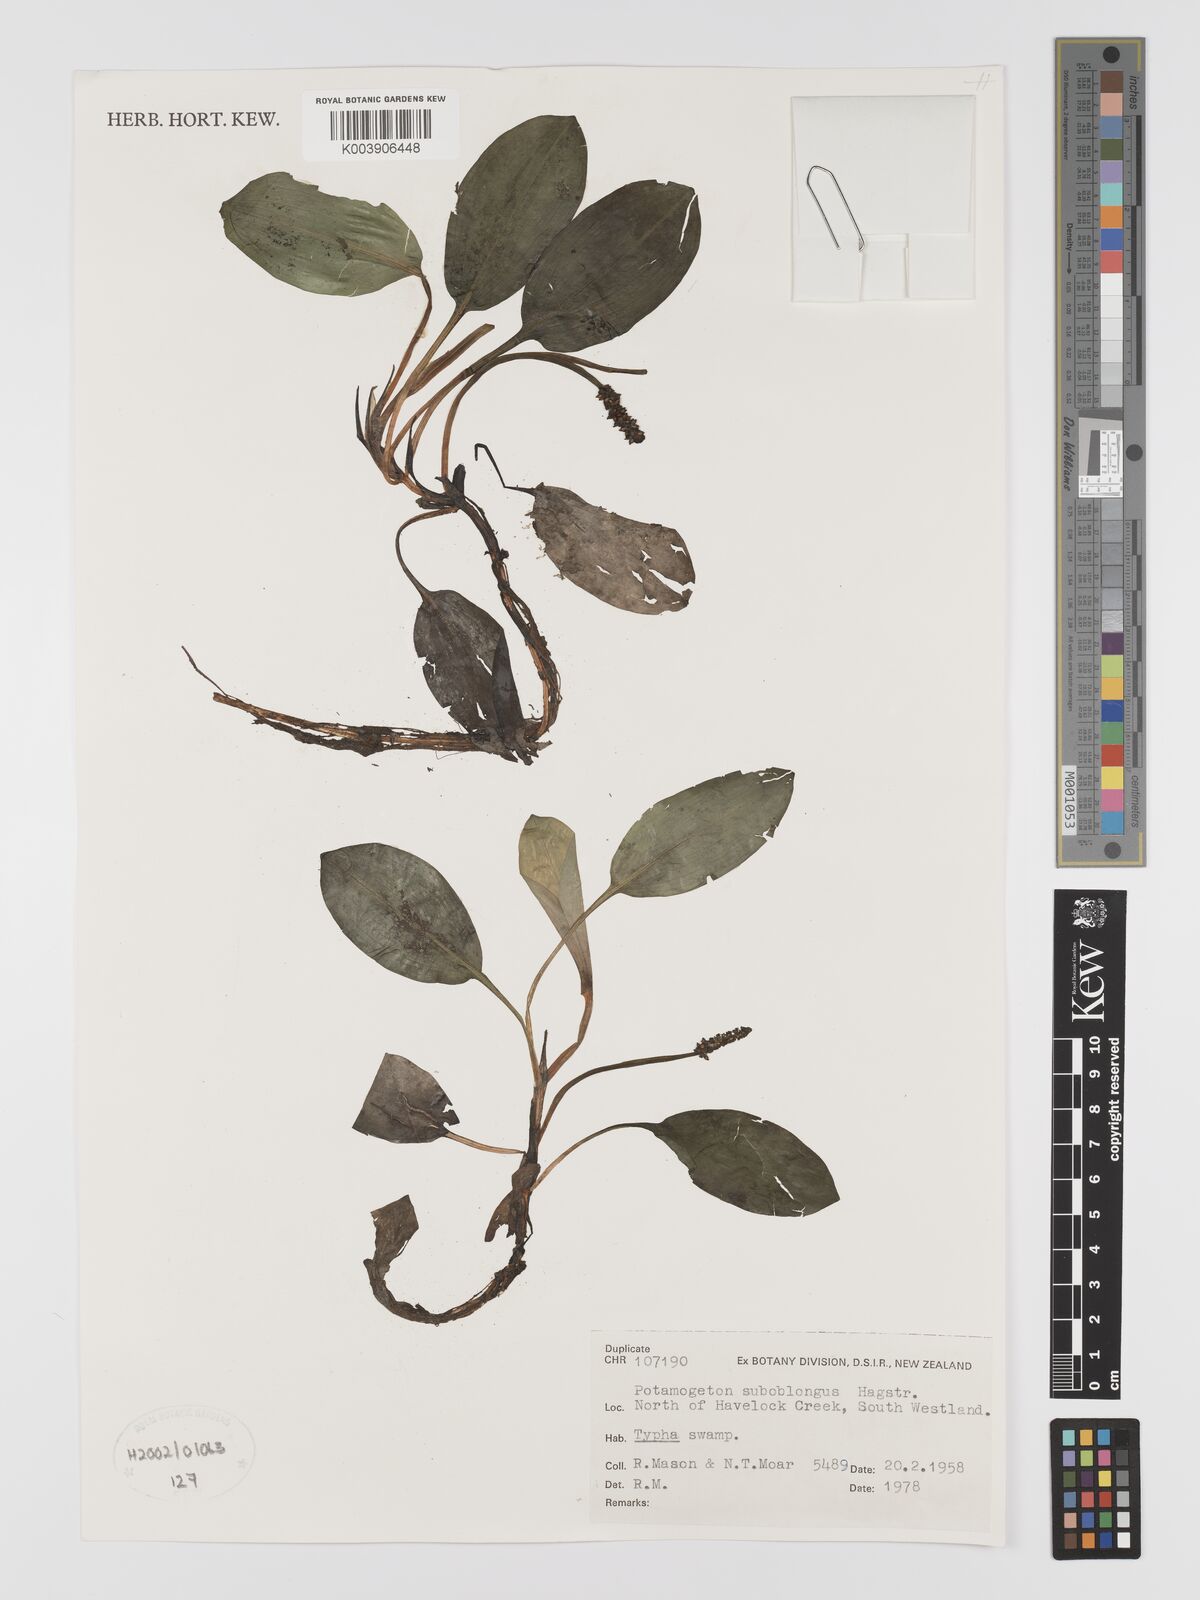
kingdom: Plantae
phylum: Tracheophyta
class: Liliopsida
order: Alismatales
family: Potamogetonaceae
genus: Potamogeton
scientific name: Potamogeton suboblongus
